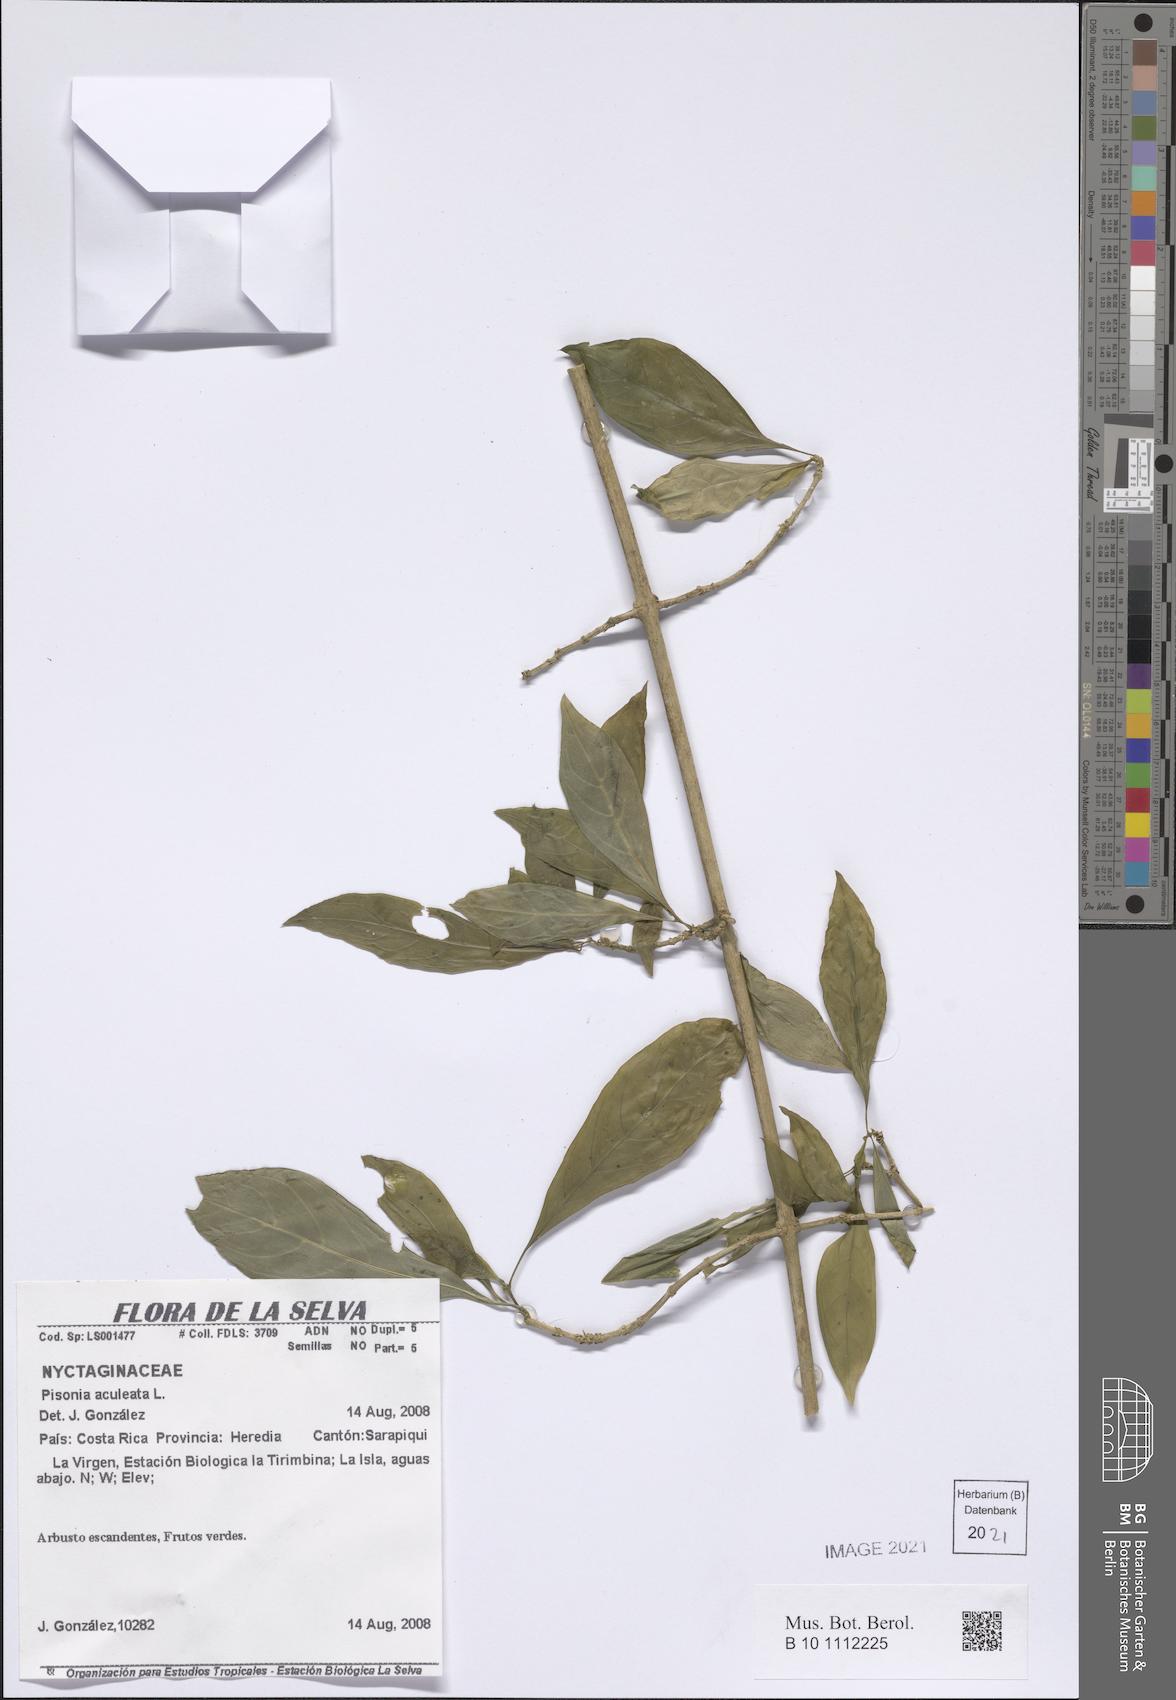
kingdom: Plantae
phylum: Tracheophyta
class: Magnoliopsida
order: Caryophyllales
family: Nyctaginaceae
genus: Pisonia
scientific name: Pisonia aculeata
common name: Cockspur vine
